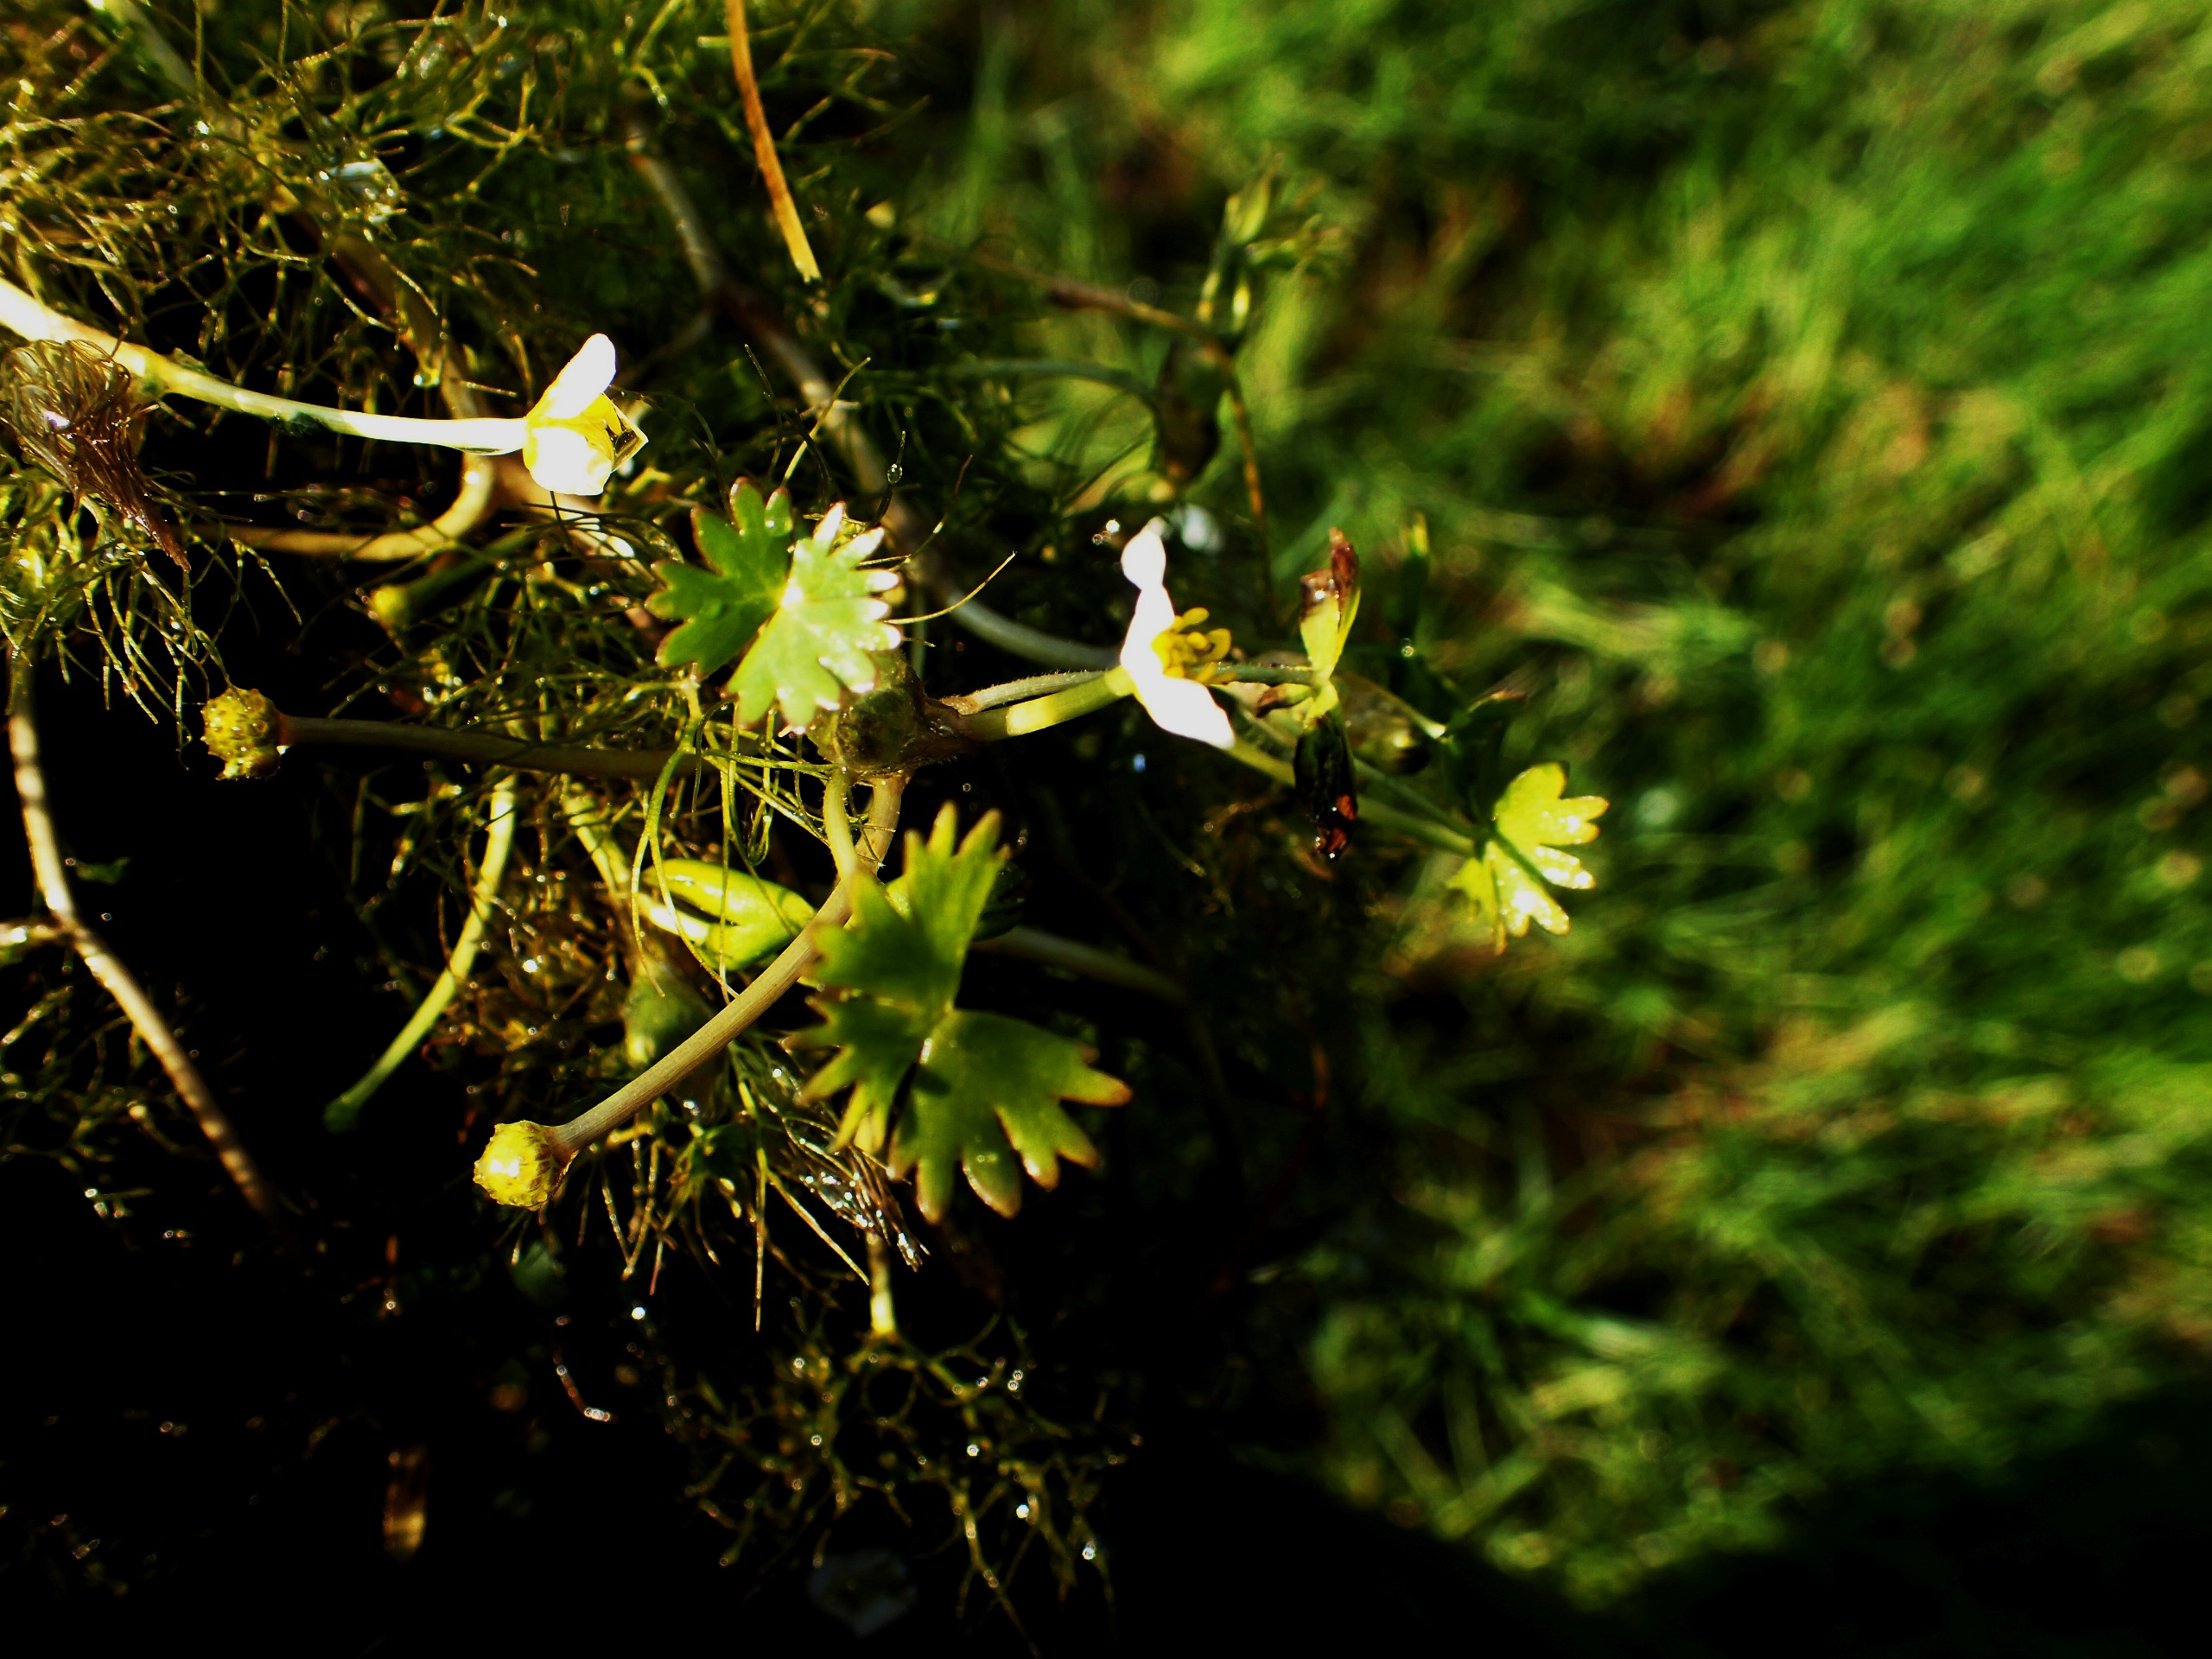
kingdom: Plantae
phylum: Tracheophyta
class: Magnoliopsida
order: Ranunculales
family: Ranunculaceae
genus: Ranunculus
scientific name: Ranunculus aquatilis
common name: Almindelig vandranunkel
